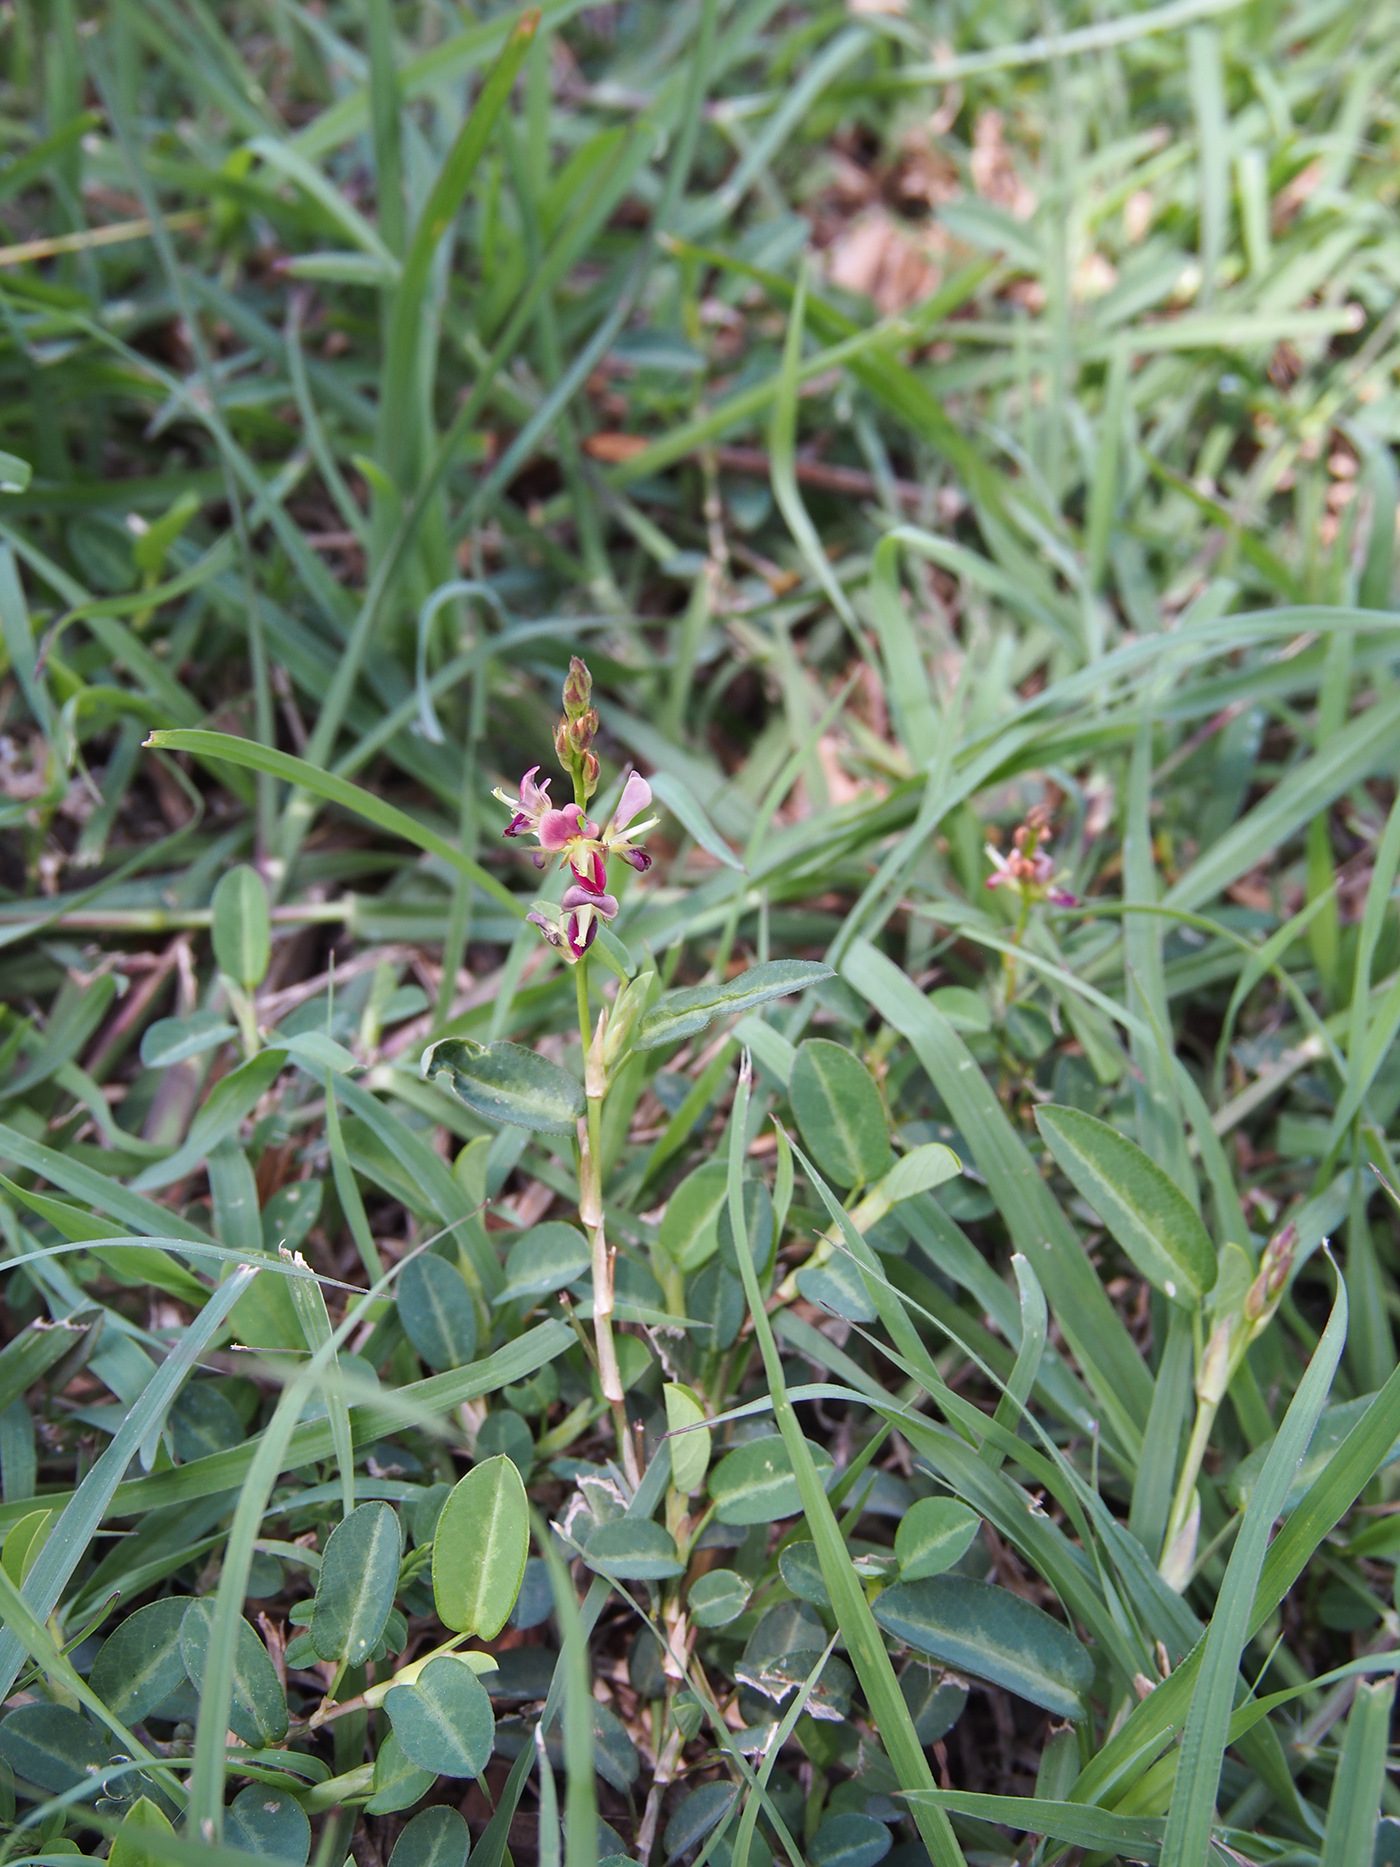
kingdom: Plantae
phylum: Tracheophyta
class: Magnoliopsida
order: Fabales
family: Fabaceae
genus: Alysicarpus
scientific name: Alysicarpus vaginalis
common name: White moneywort
